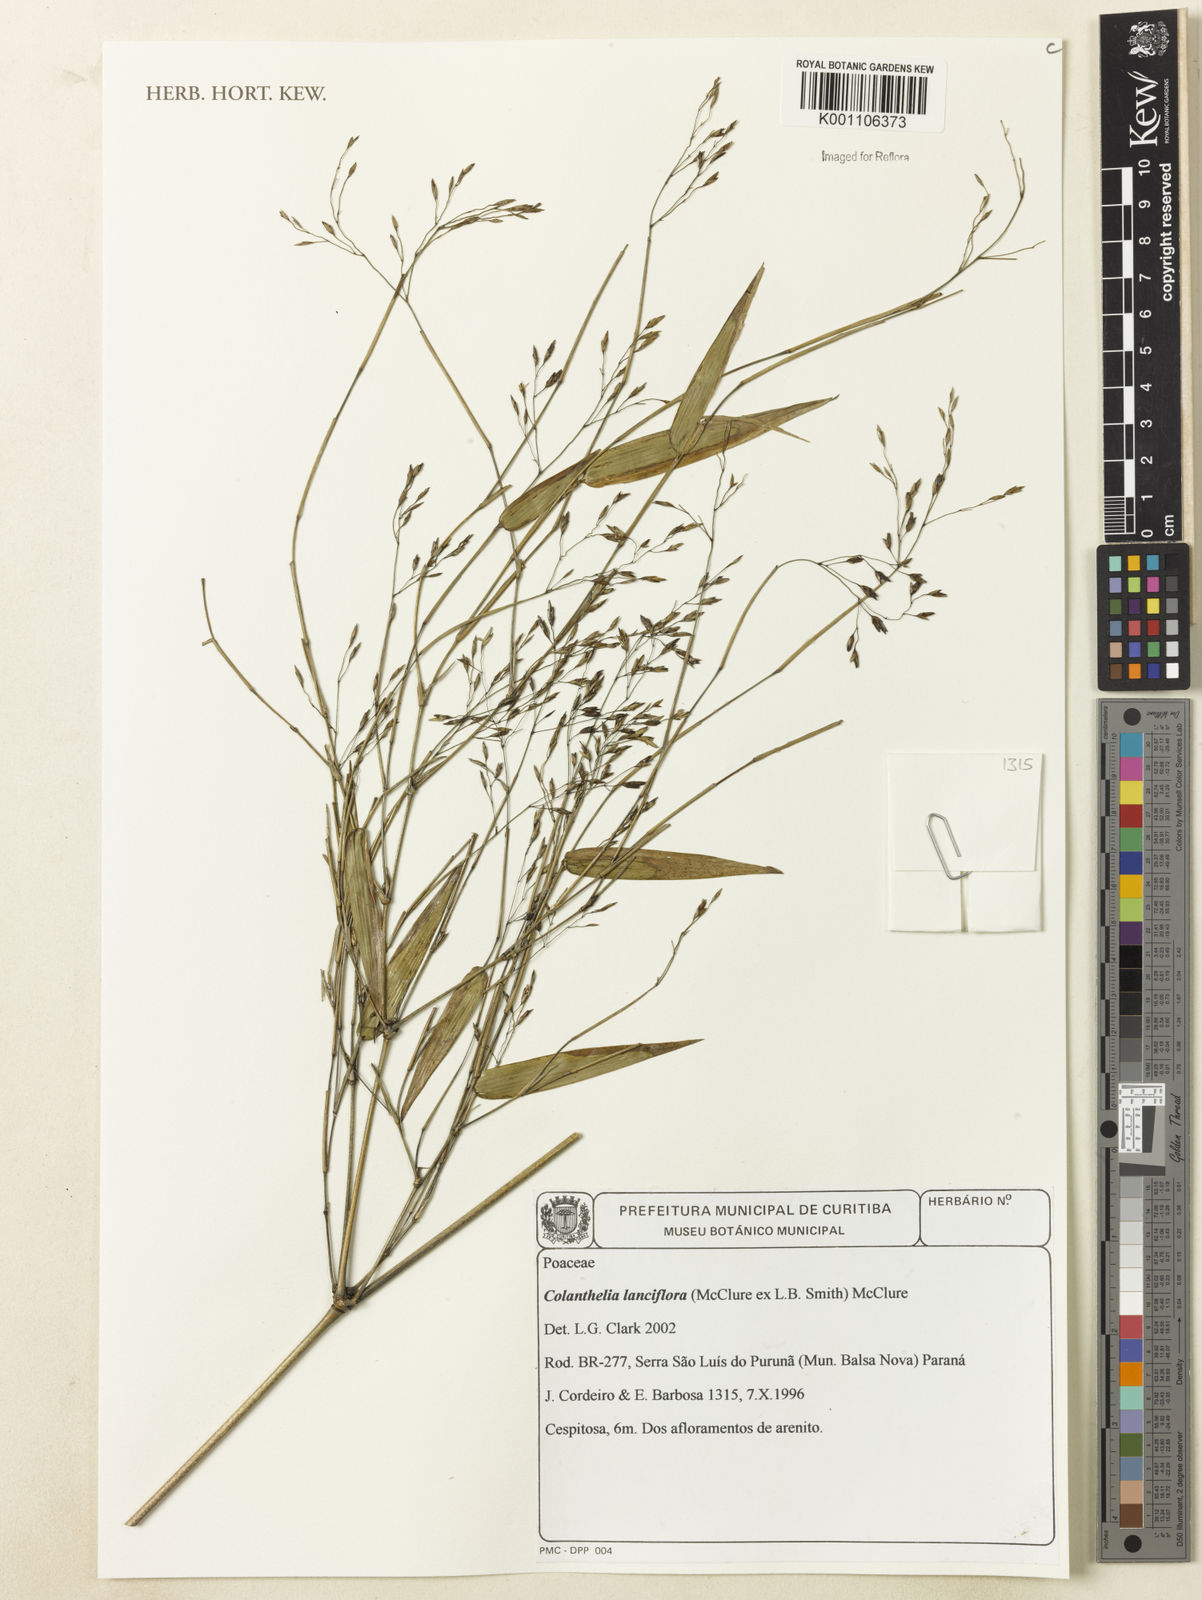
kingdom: Plantae
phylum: Tracheophyta
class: Liliopsida
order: Poales
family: Poaceae
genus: Colanthelia
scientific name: Colanthelia lanciflora
